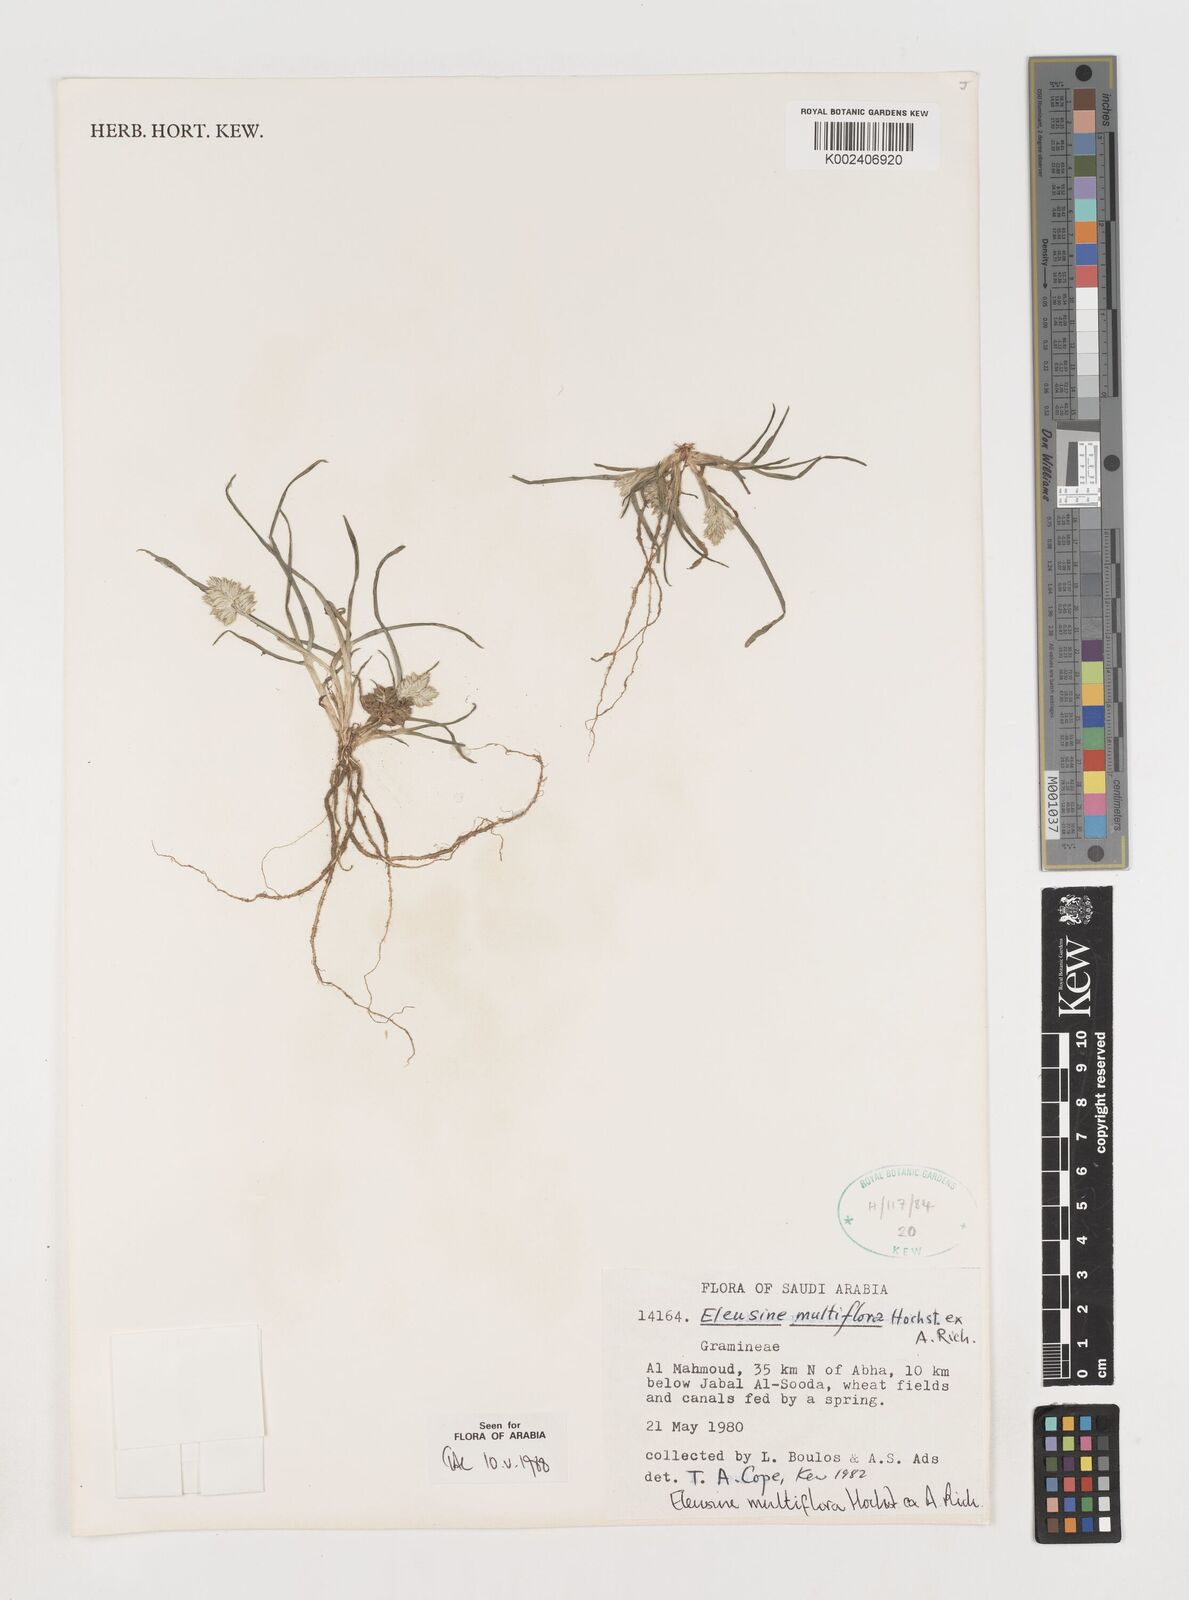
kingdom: Plantae
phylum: Tracheophyta
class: Liliopsida
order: Poales
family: Poaceae
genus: Eleusine
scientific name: Eleusine multiflora
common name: Fat-spiked yard-grass
